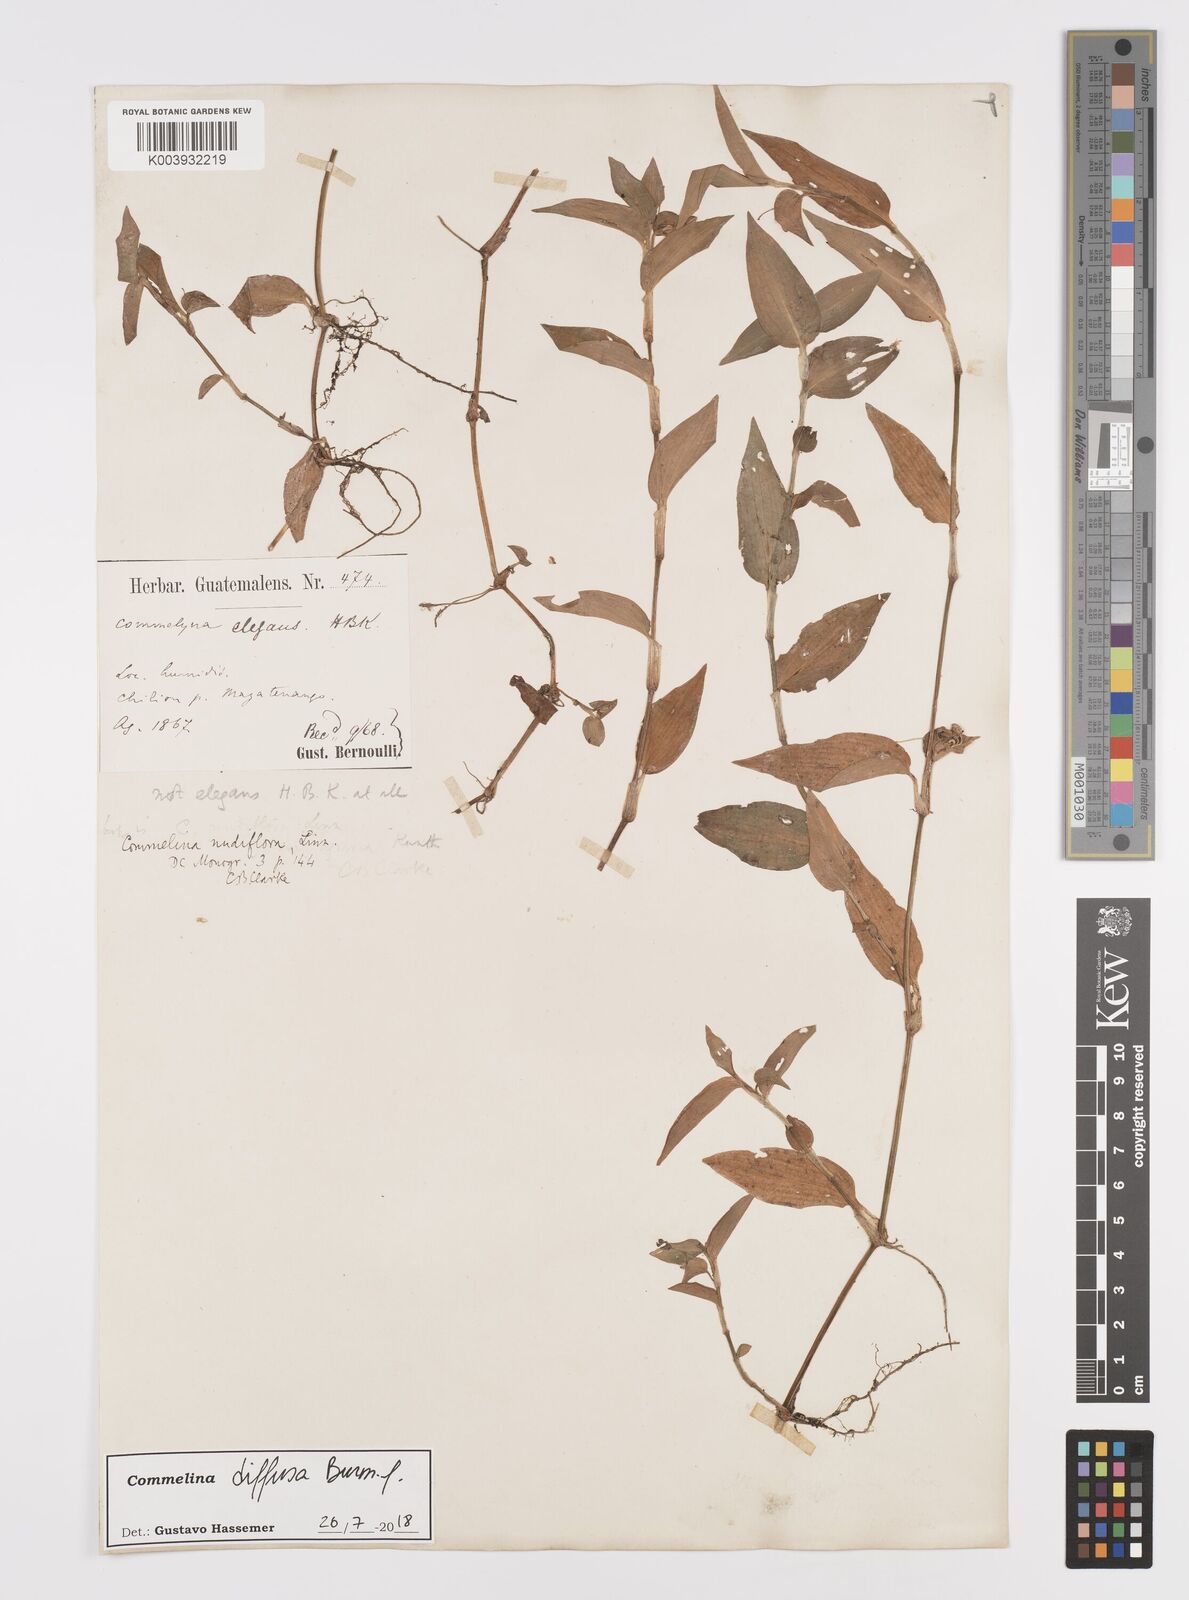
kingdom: Plantae
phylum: Tracheophyta
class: Liliopsida
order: Commelinales
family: Commelinaceae
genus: Commelina
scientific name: Commelina diffusa
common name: Climbing dayflower
